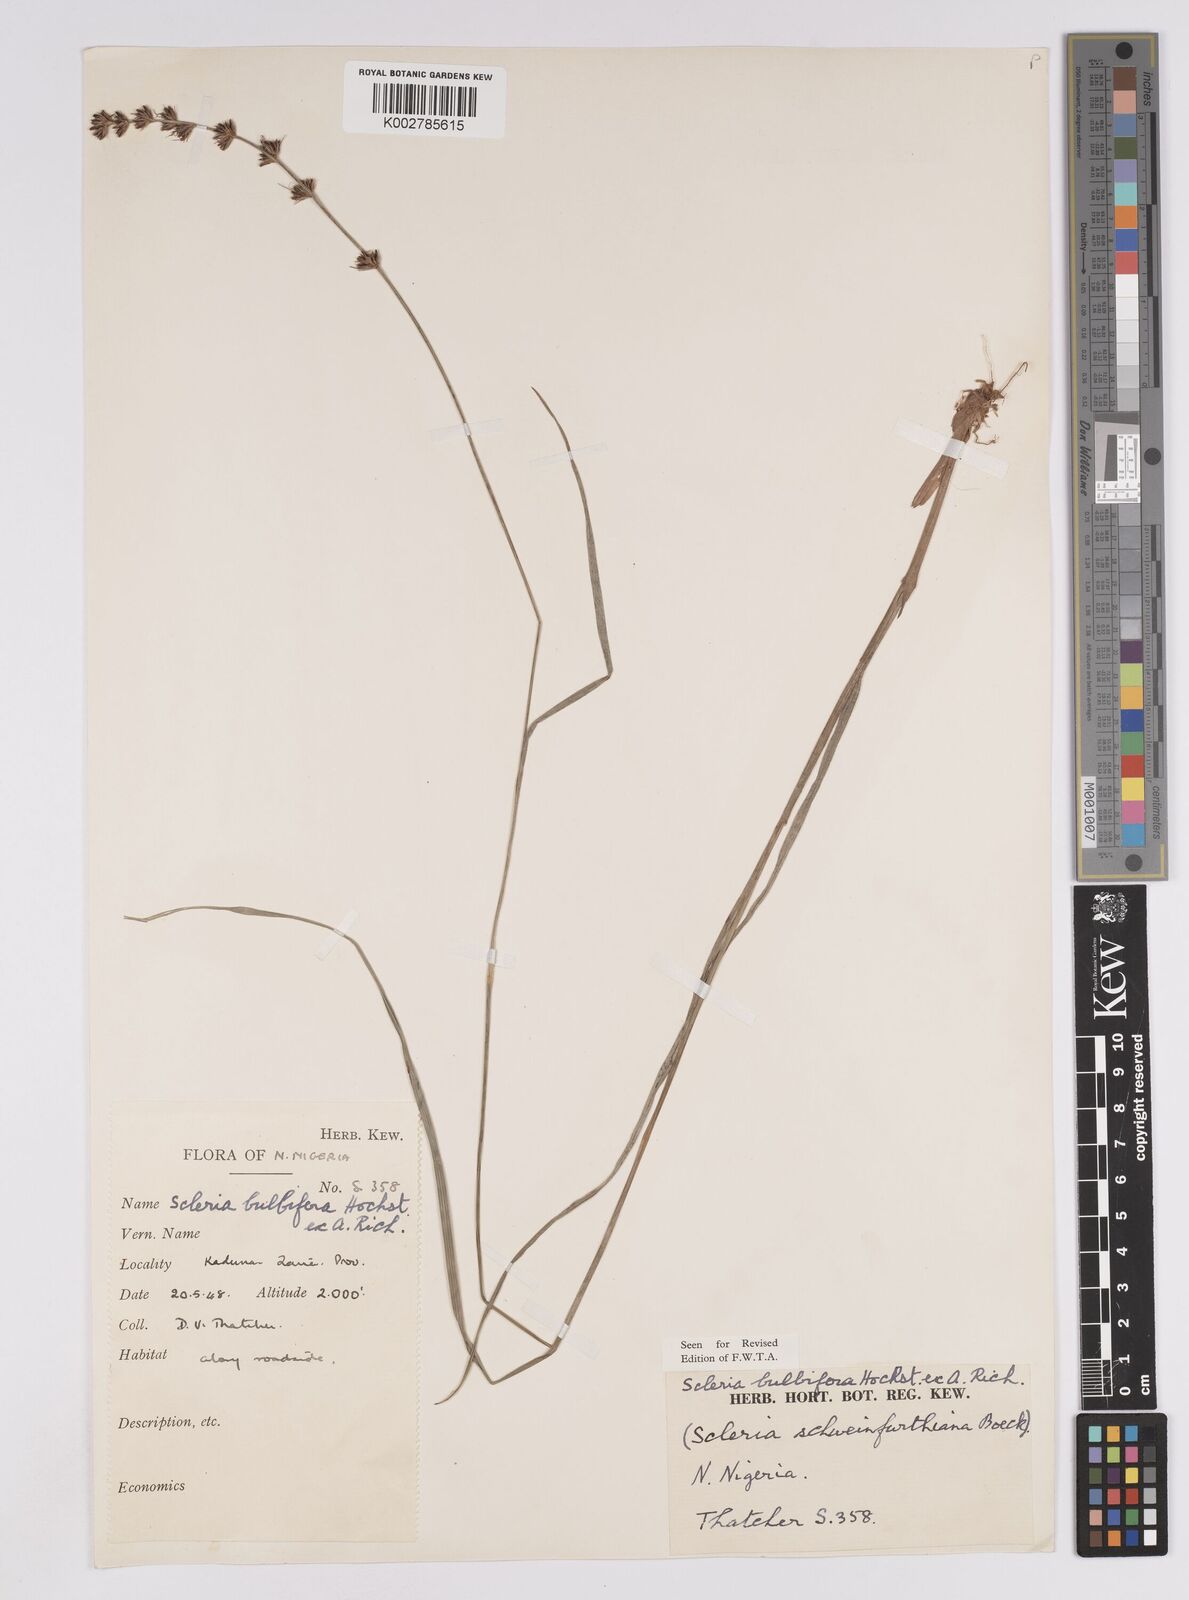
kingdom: Plantae
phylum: Tracheophyta
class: Liliopsida
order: Poales
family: Cyperaceae
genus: Scleria
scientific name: Scleria bulbifera
